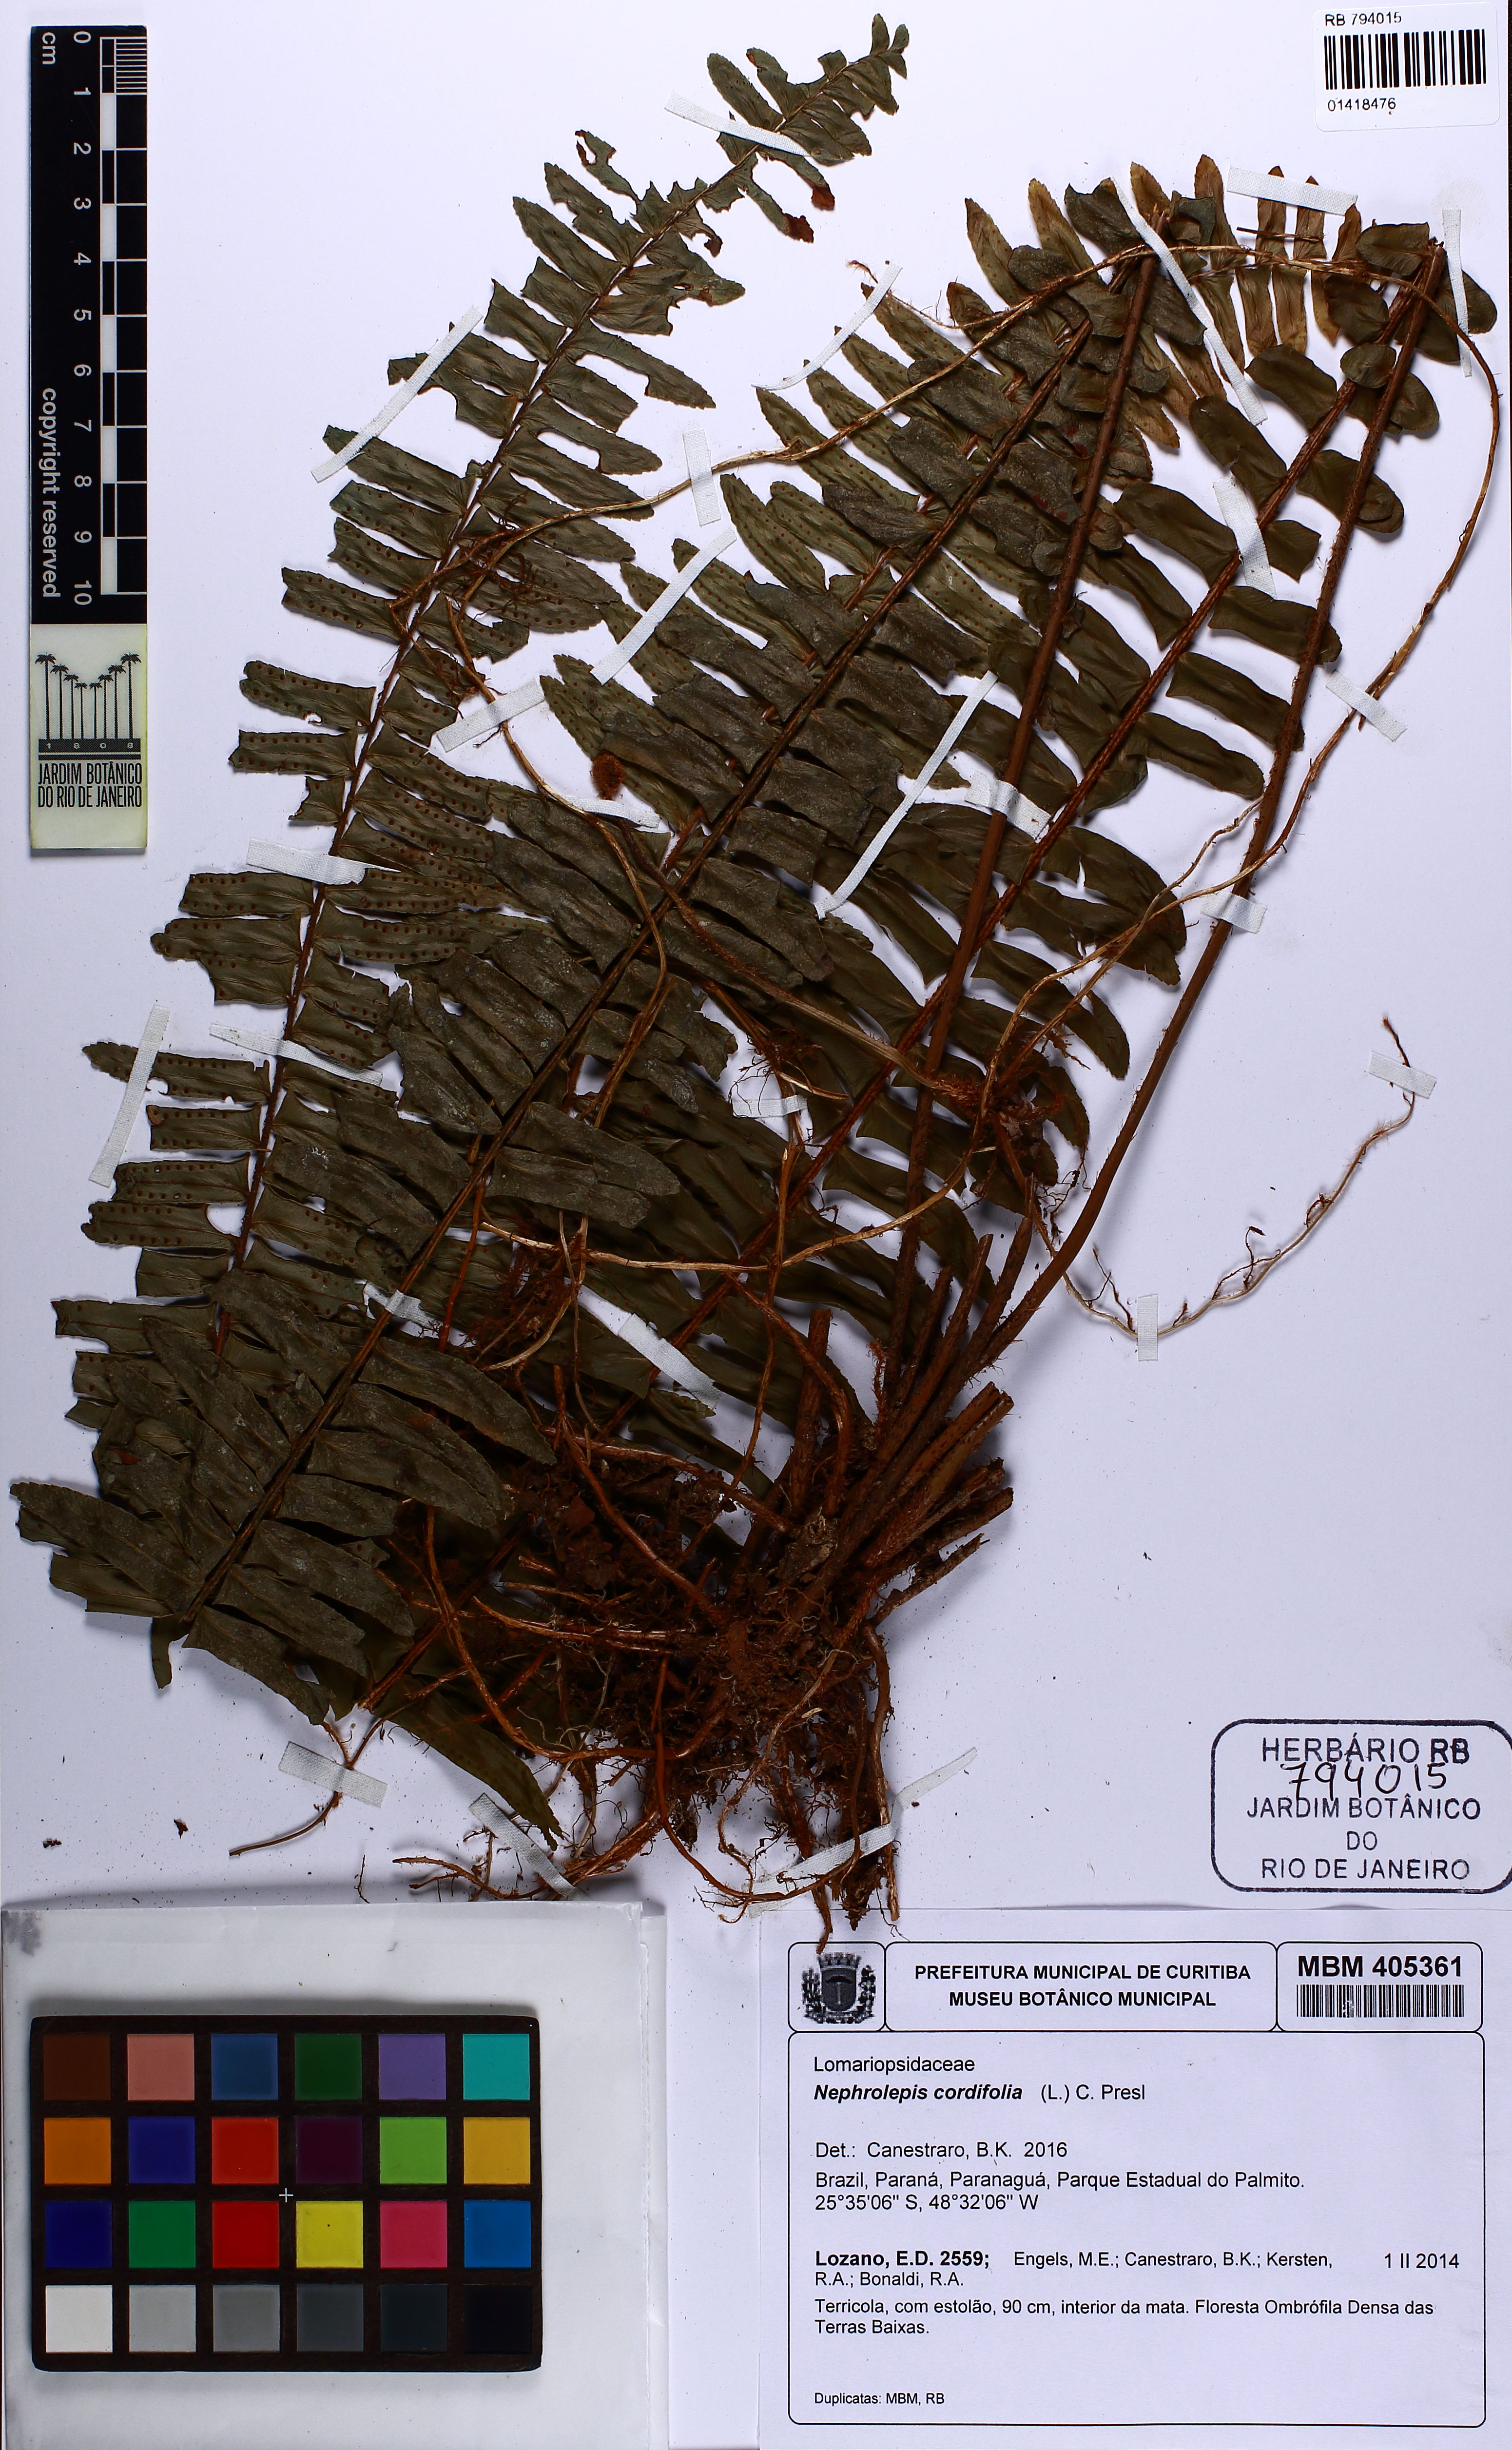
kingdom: Plantae
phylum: Tracheophyta
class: Polypodiopsida
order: Polypodiales
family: Nephrolepidaceae
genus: Nephrolepis
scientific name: Nephrolepis cordifolia
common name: Narrow swordfern
